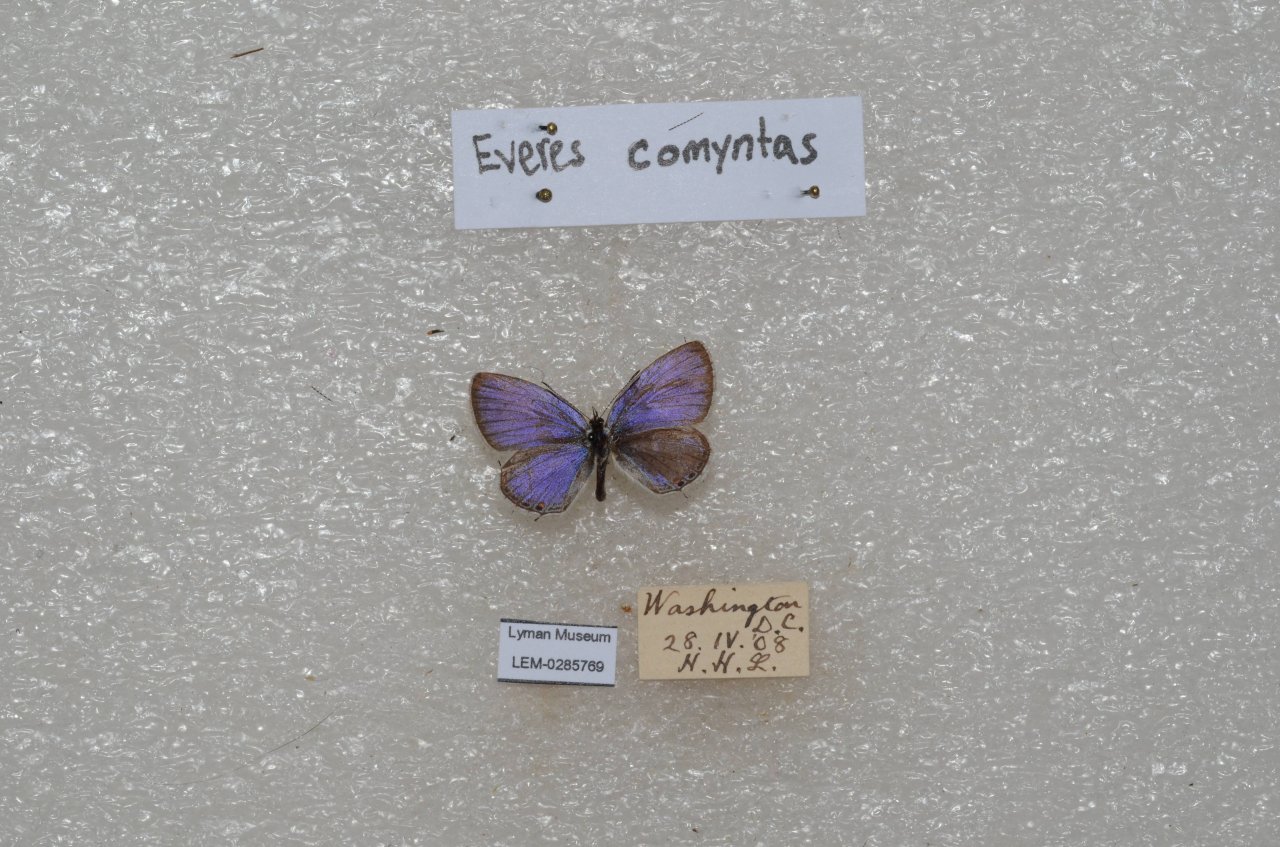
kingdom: Animalia
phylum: Arthropoda
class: Insecta
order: Lepidoptera
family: Lycaenidae
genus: Elkalyce
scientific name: Elkalyce comyntas
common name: Eastern Tailed-Blue
